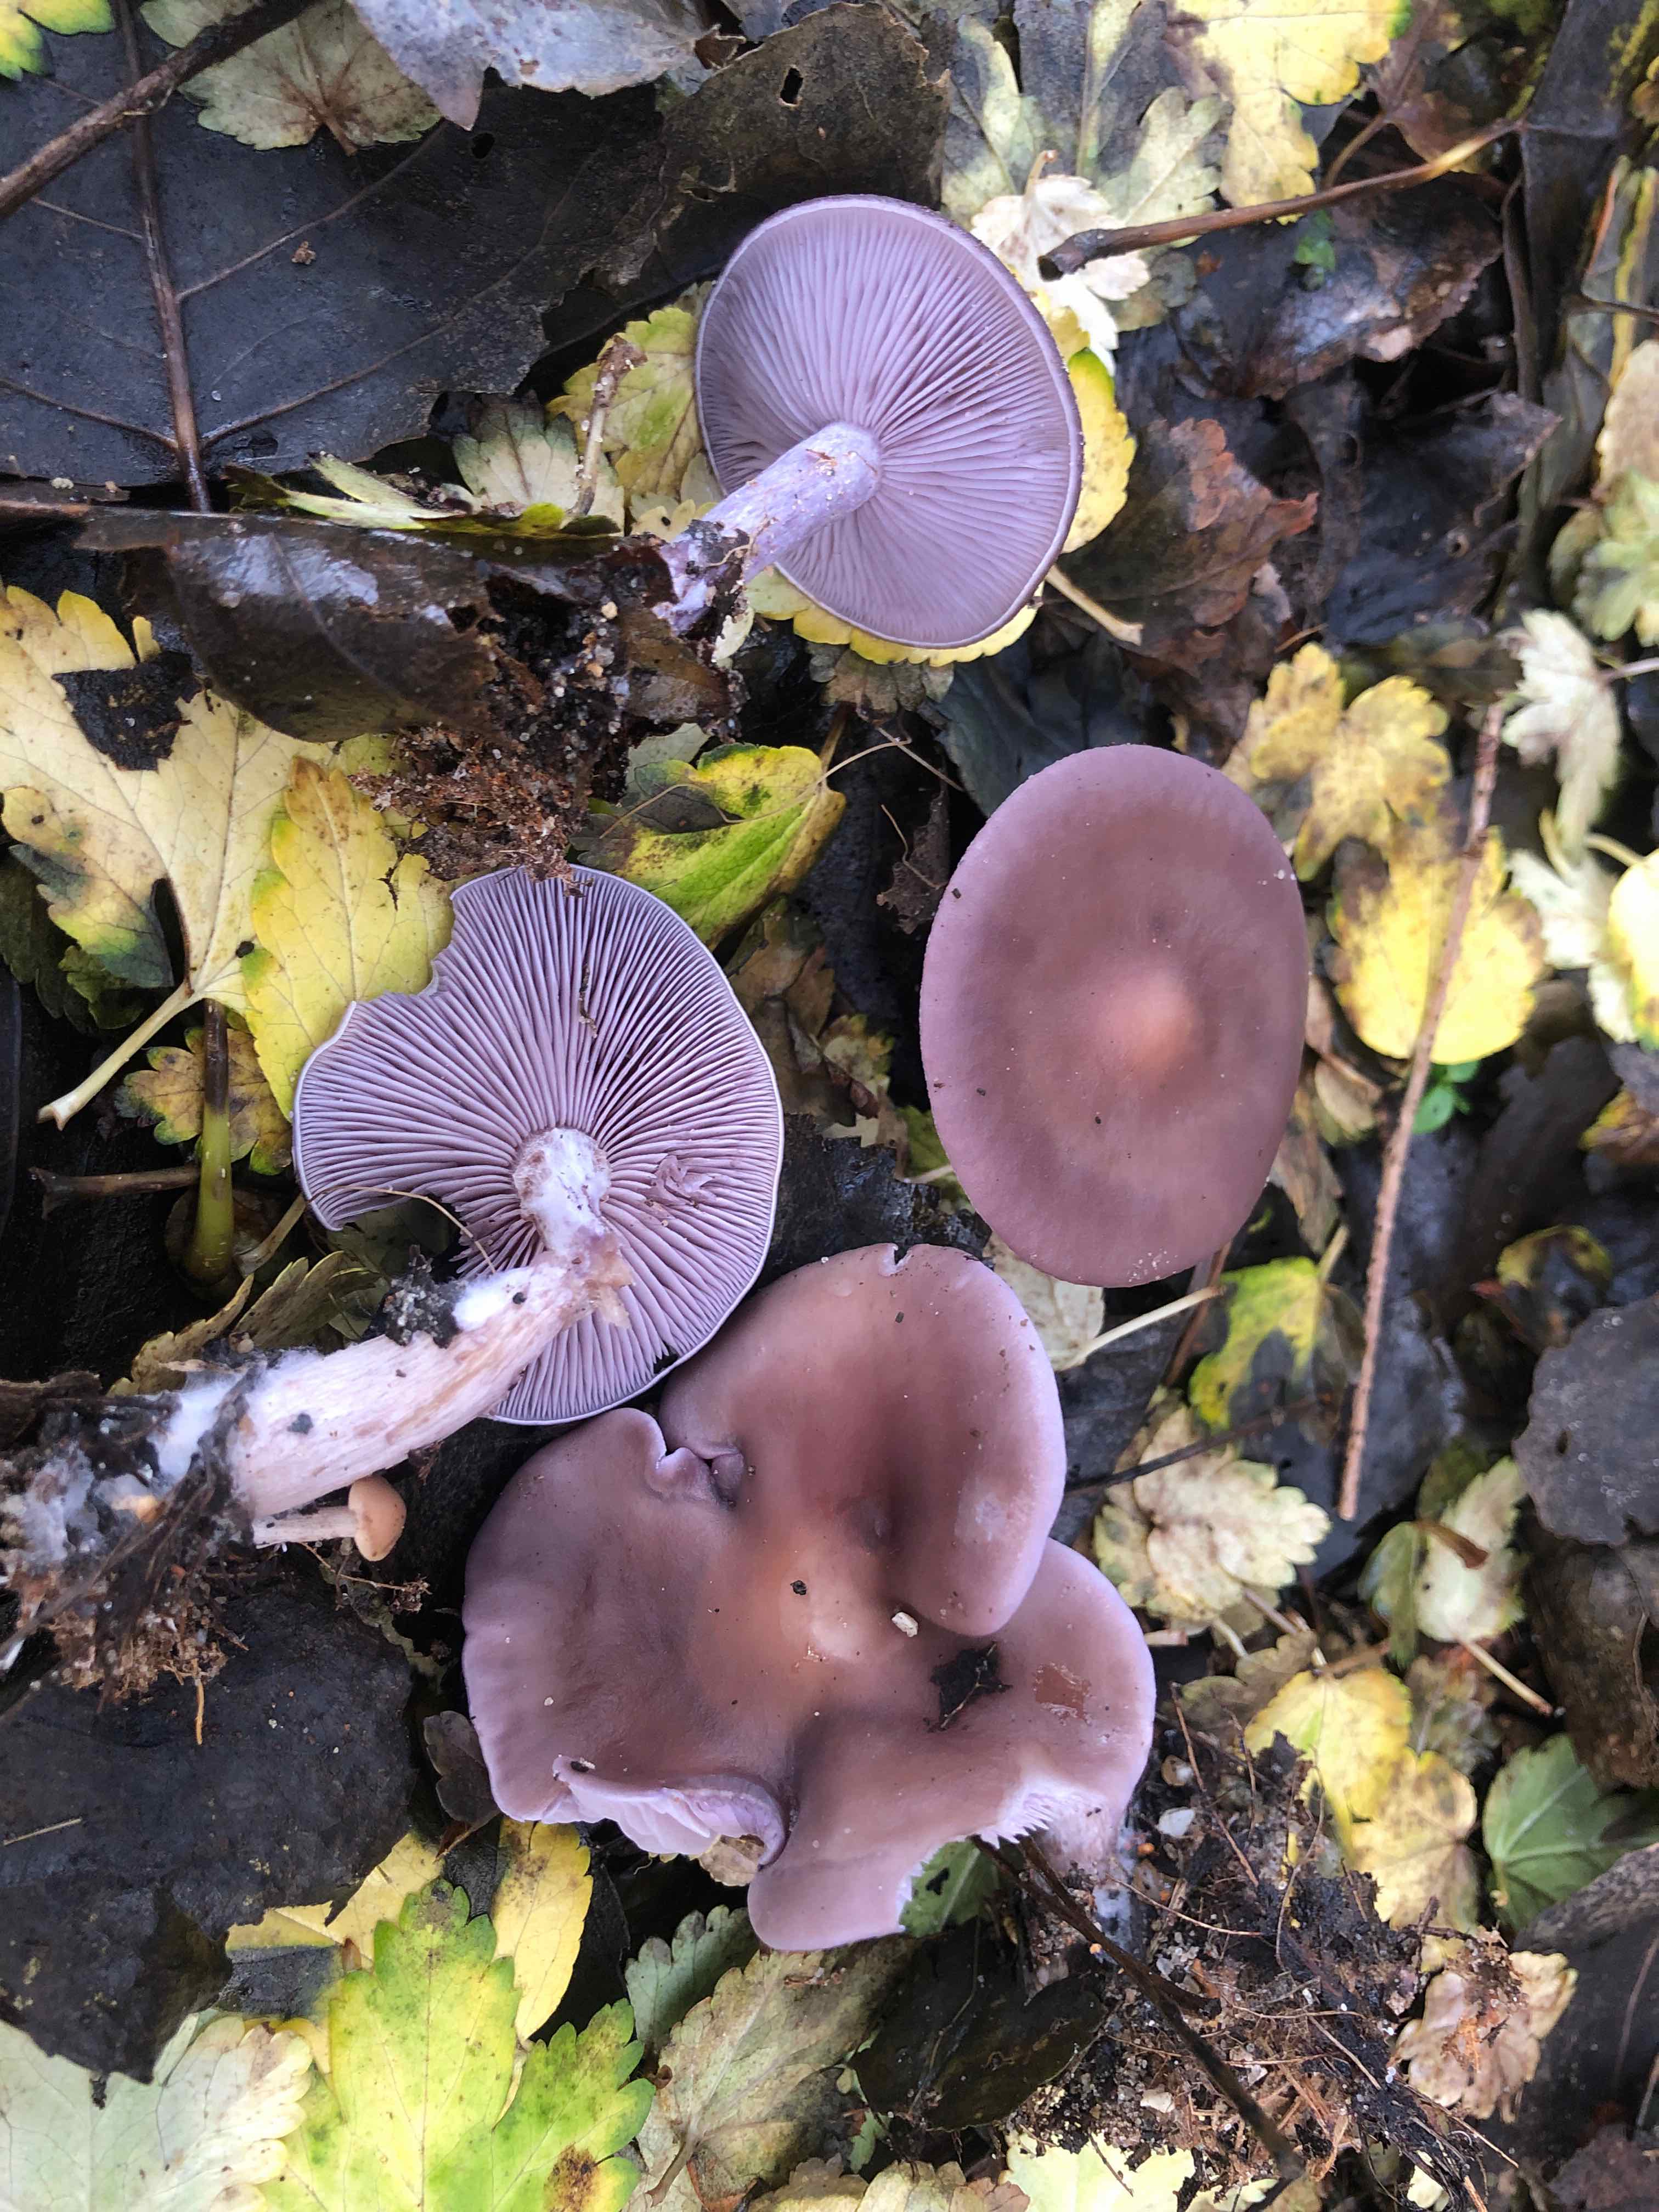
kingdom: Fungi
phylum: Basidiomycota
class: Agaricomycetes
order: Agaricales
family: Tricholomataceae
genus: Lepista
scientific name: Lepista lilacea
